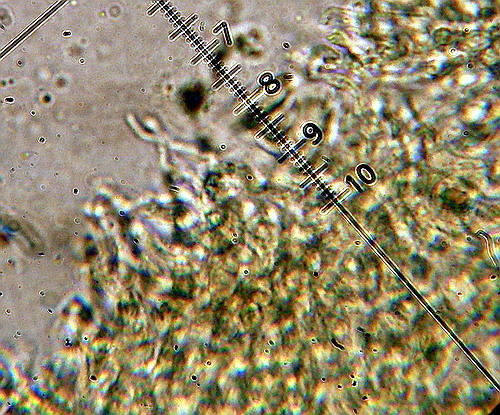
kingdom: Fungi
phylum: Basidiomycota
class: Agaricomycetes
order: Agaricales
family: Mycenaceae
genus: Hemimycena
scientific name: Hemimycena lactea
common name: mælkehvid huesvamp
